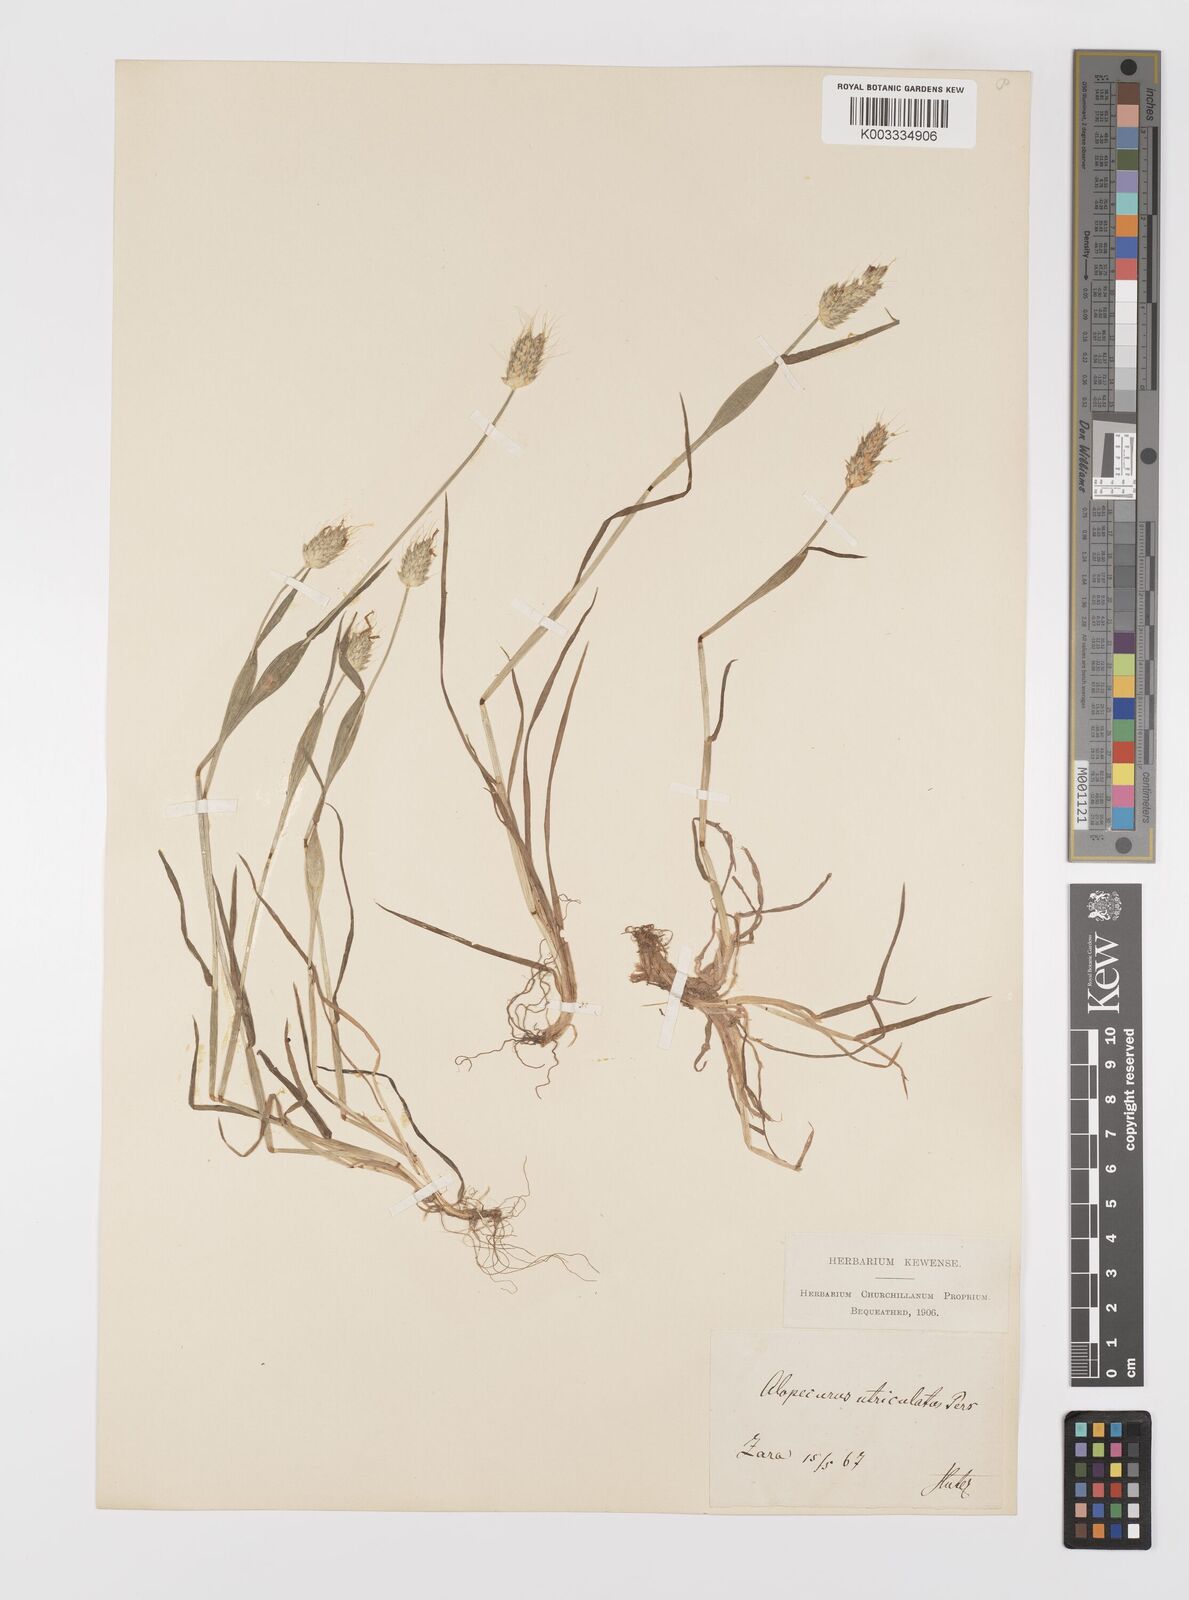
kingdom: Plantae
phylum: Tracheophyta
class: Liliopsida
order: Poales
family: Poaceae
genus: Alopecurus
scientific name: Alopecurus rendlei
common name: Rendle's meadow foxtail
